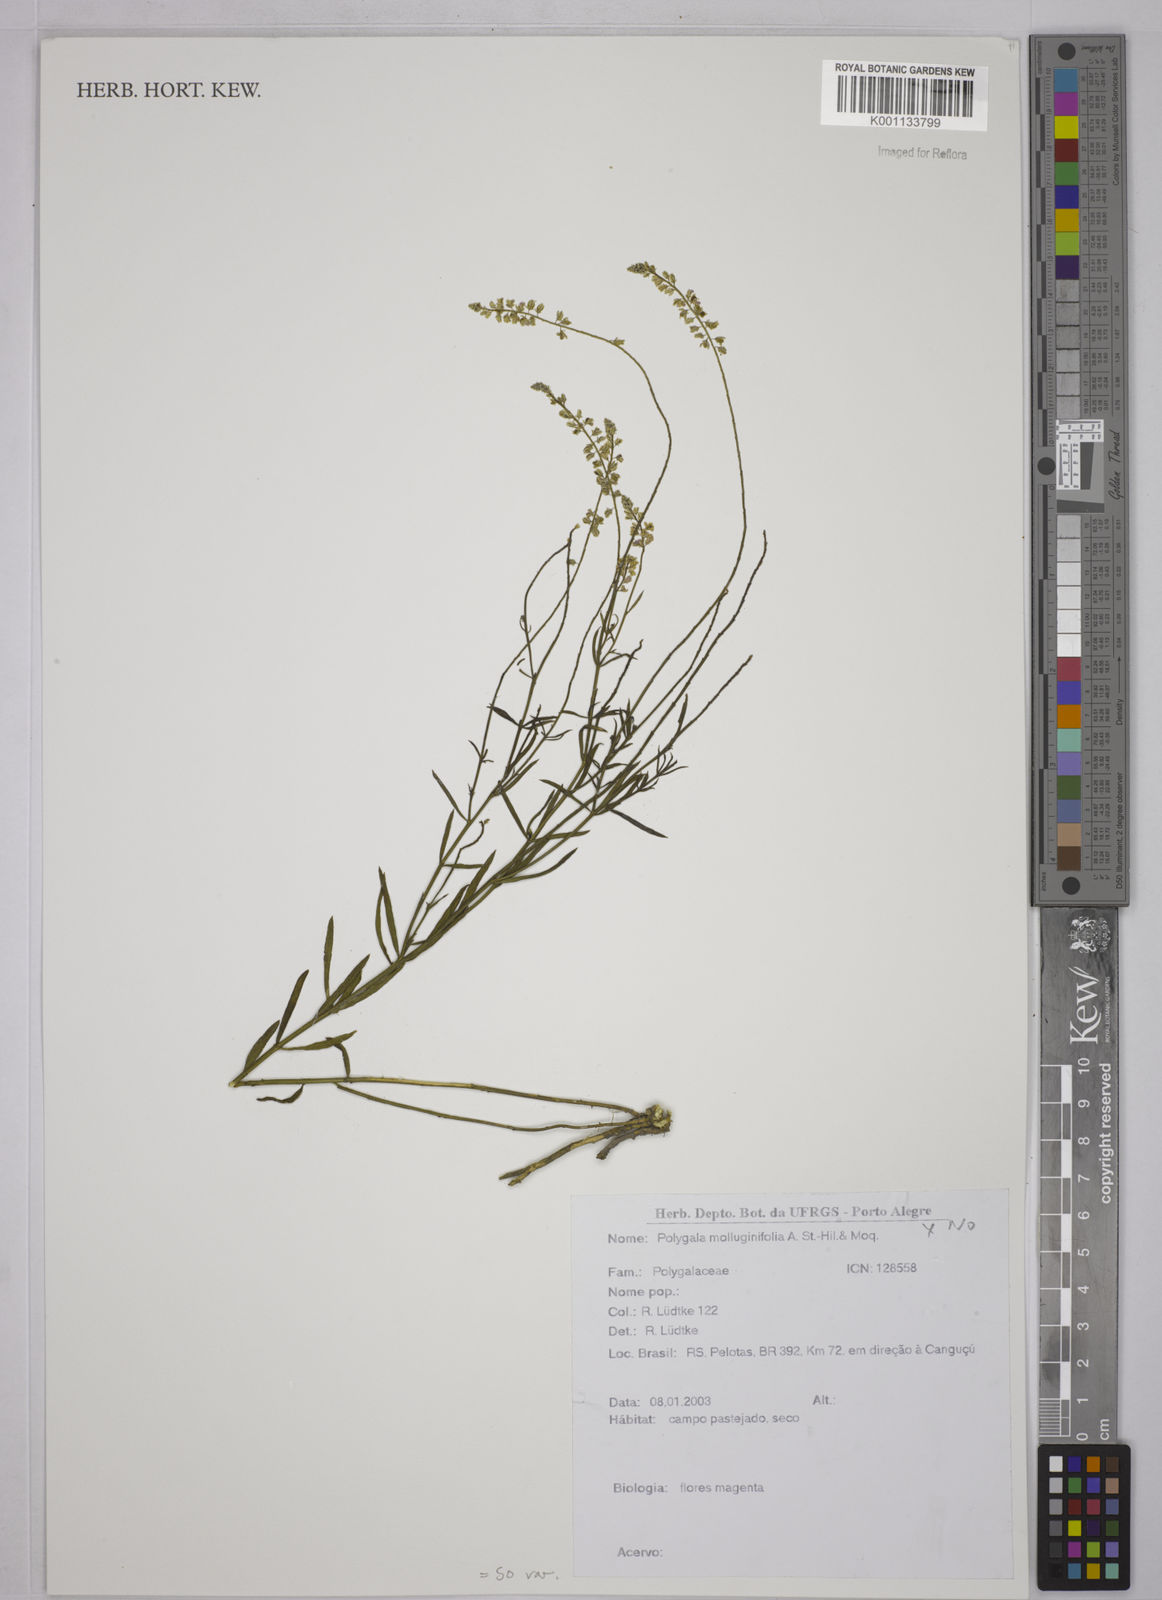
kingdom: Plantae
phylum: Tracheophyta
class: Magnoliopsida
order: Fabales
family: Polygalaceae
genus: Polygala
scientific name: Polygala
